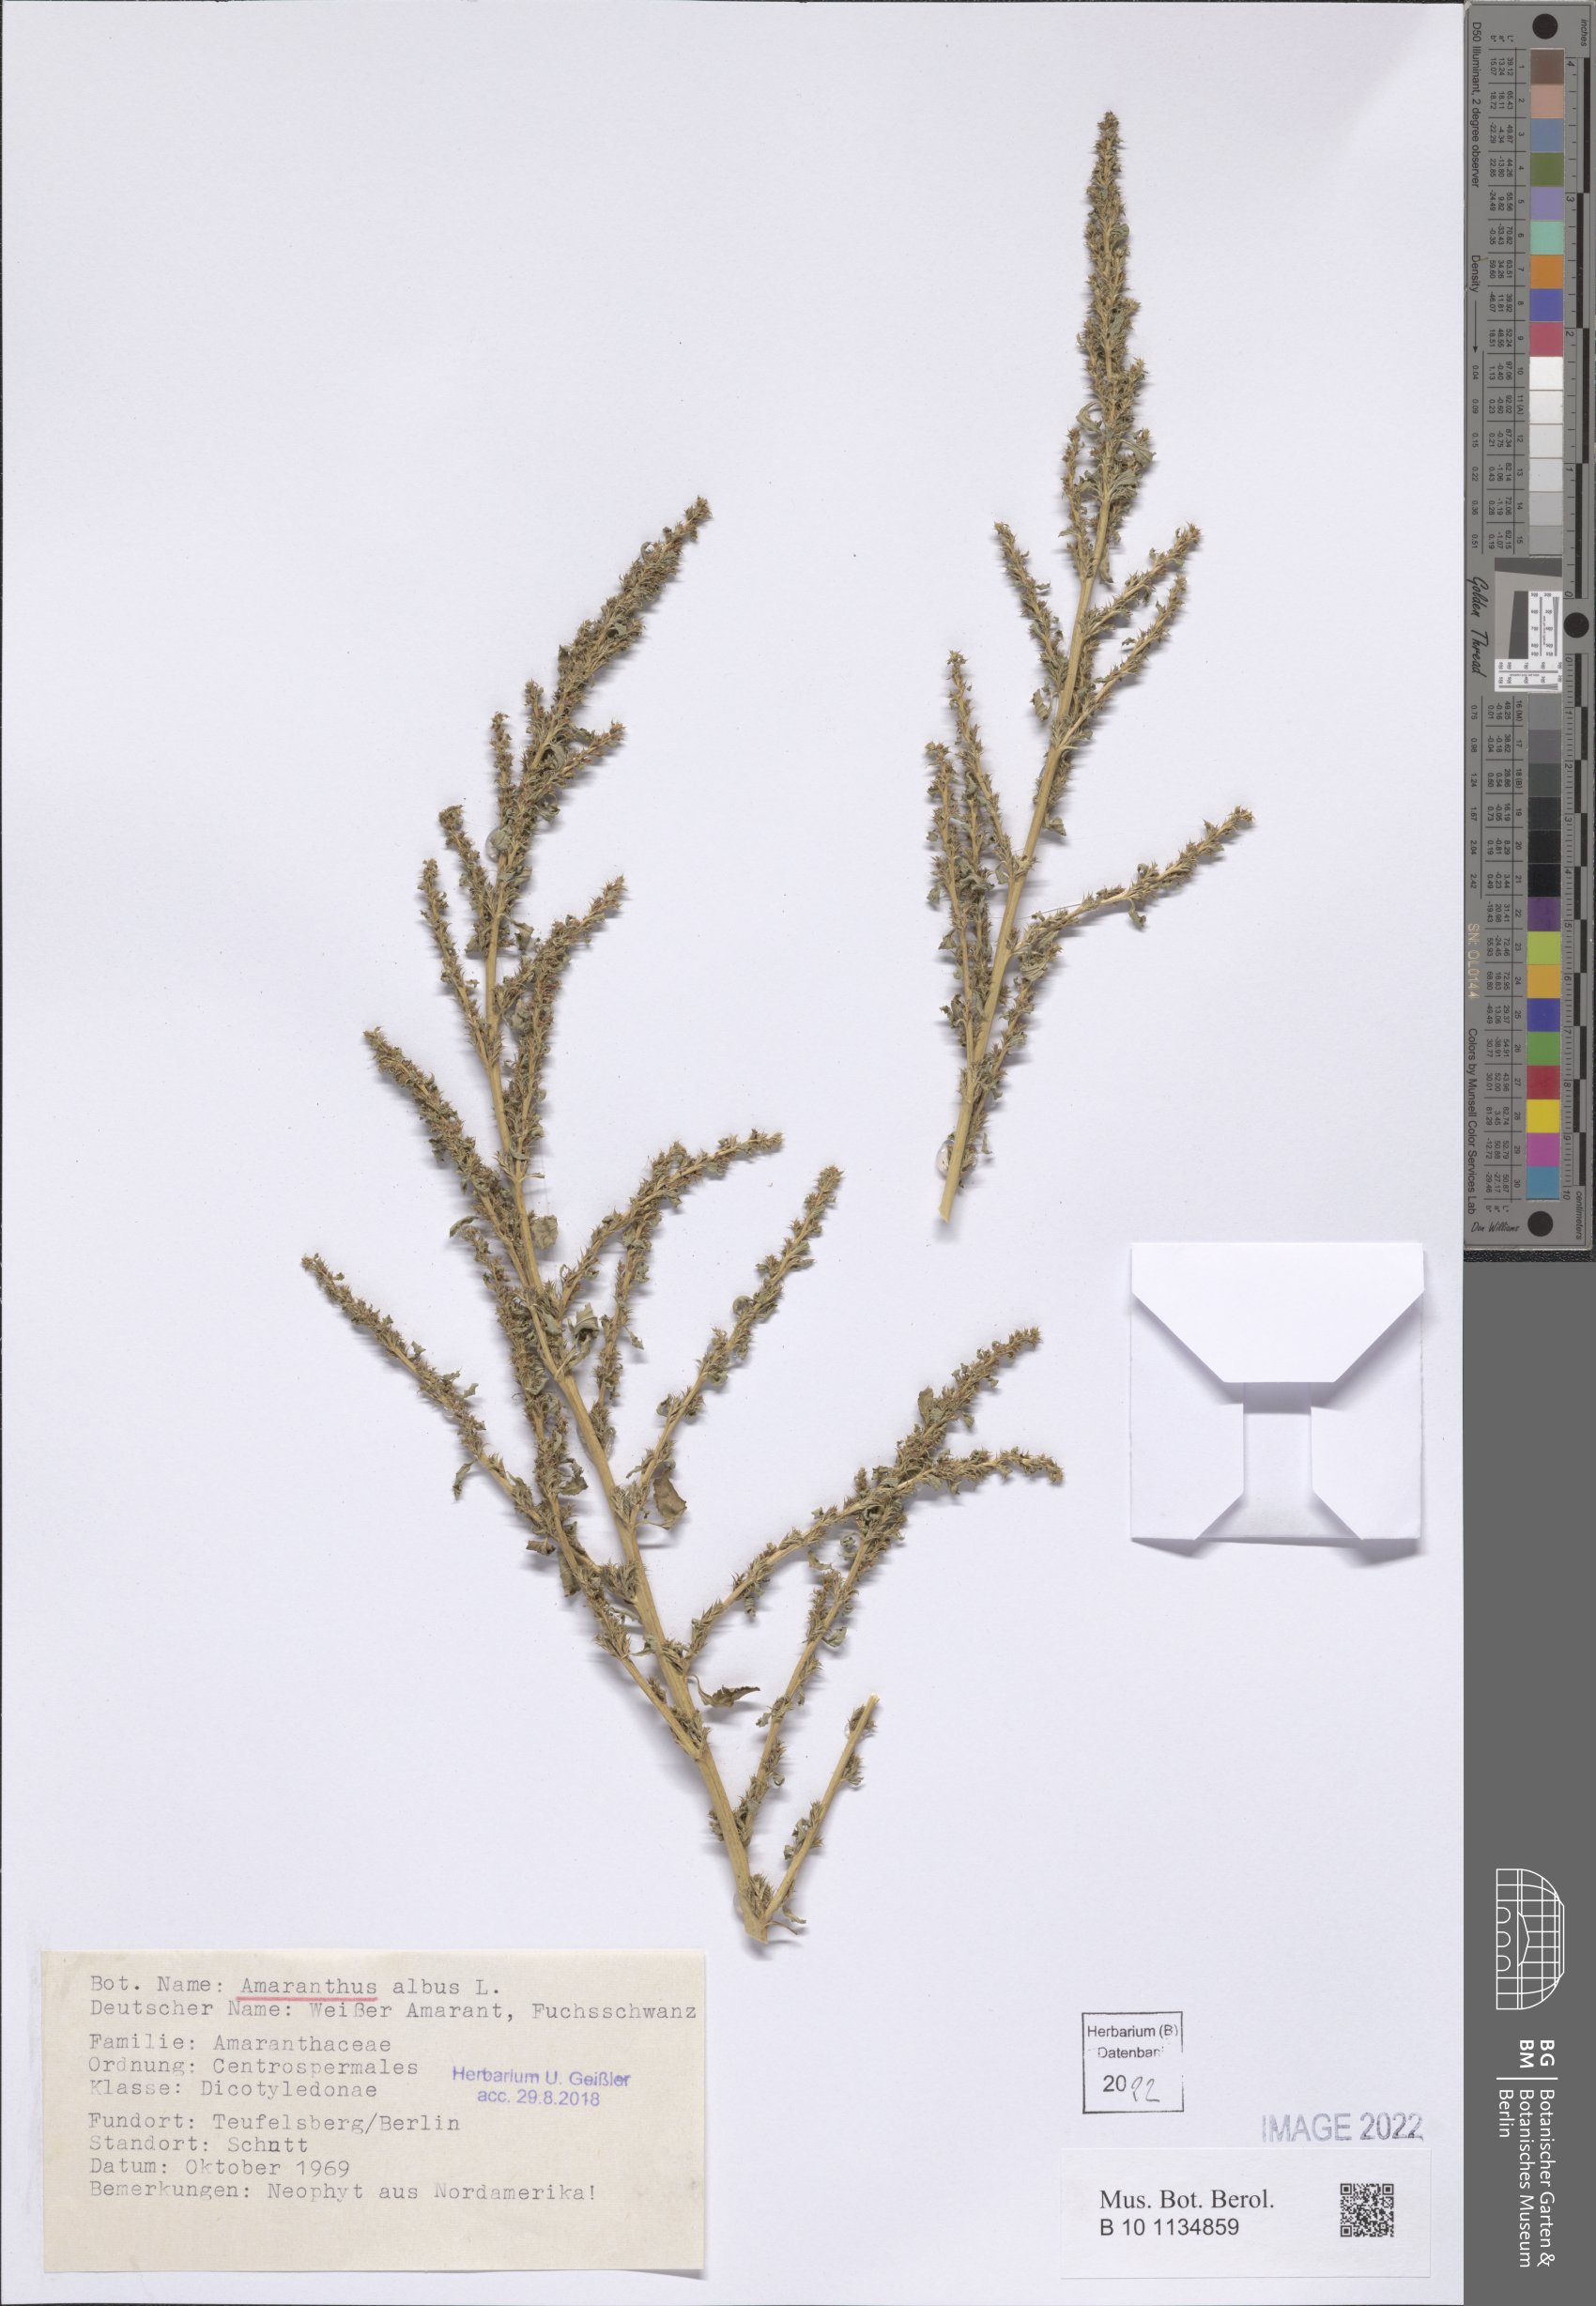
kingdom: Plantae
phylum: Tracheophyta
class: Magnoliopsida
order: Caryophyllales
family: Amaranthaceae
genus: Amaranthus
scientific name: Amaranthus albus
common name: White pigweed
